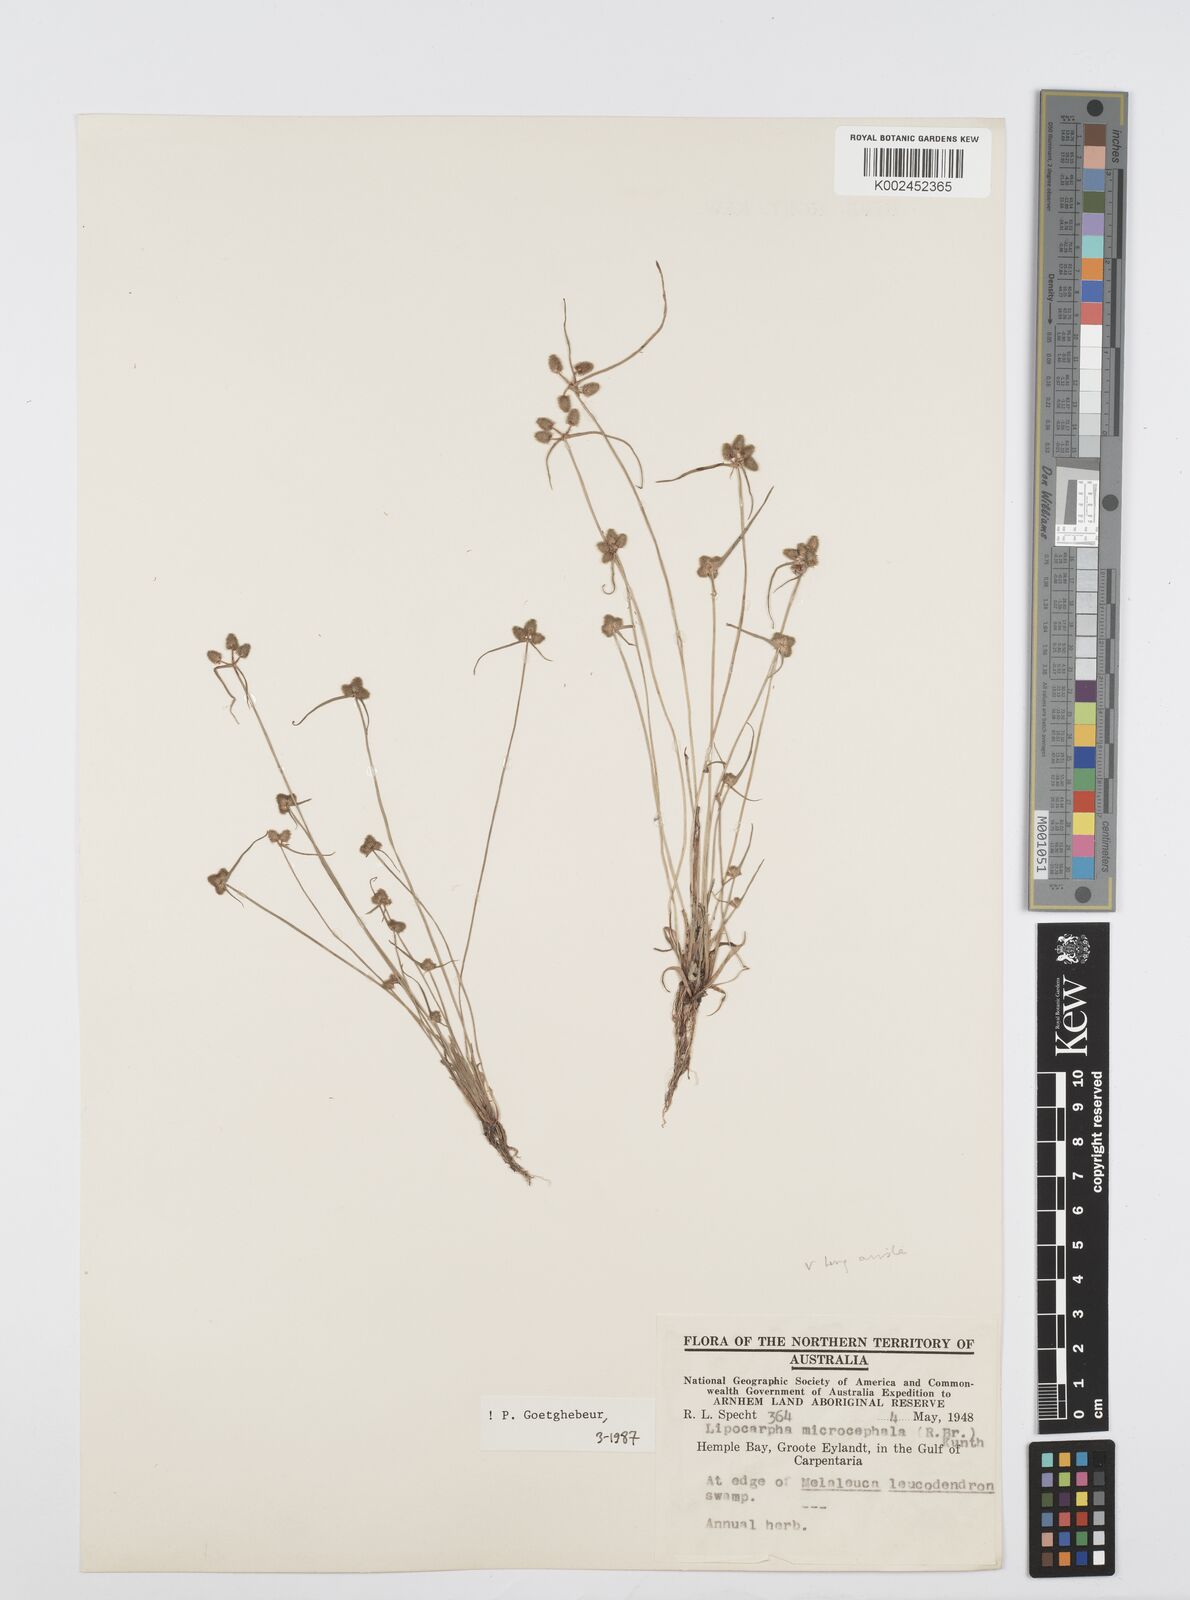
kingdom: Plantae
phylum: Tracheophyta
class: Liliopsida
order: Poales
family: Cyperaceae
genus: Cyperus
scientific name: Cyperus microcephalus
